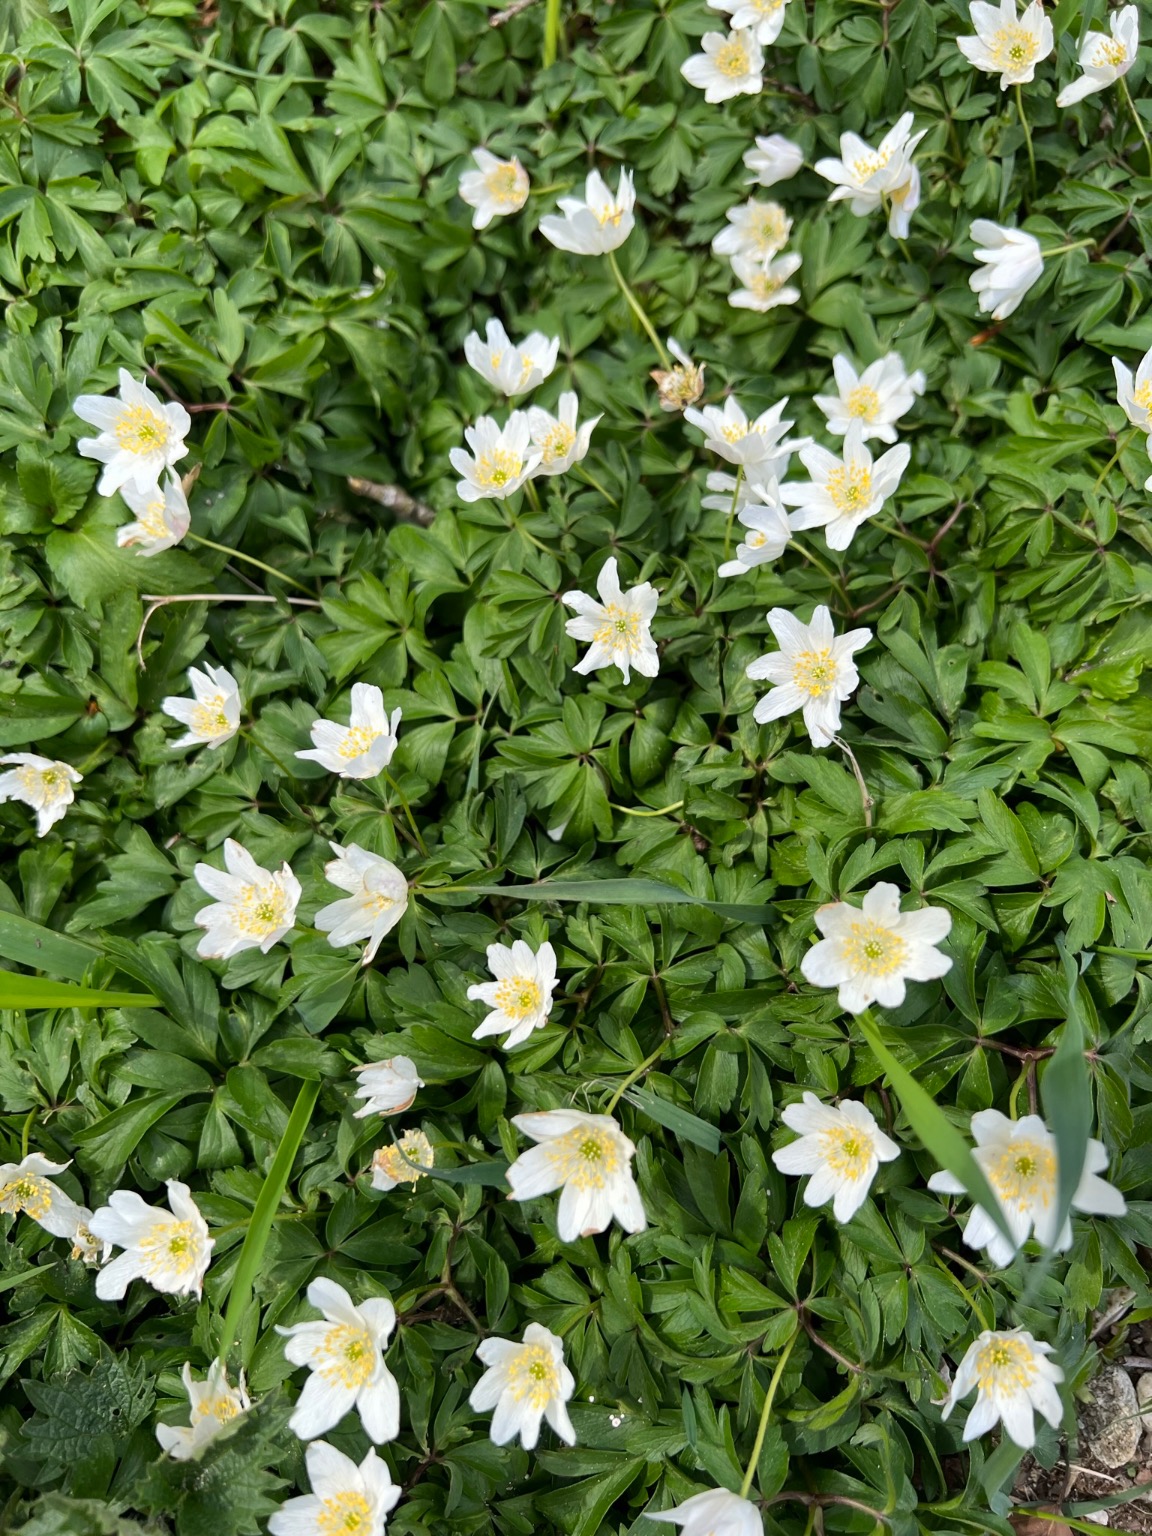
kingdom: Plantae
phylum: Tracheophyta
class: Magnoliopsida
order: Ranunculales
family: Ranunculaceae
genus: Anemone
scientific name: Anemone nemorosa
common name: Hvid anemone
